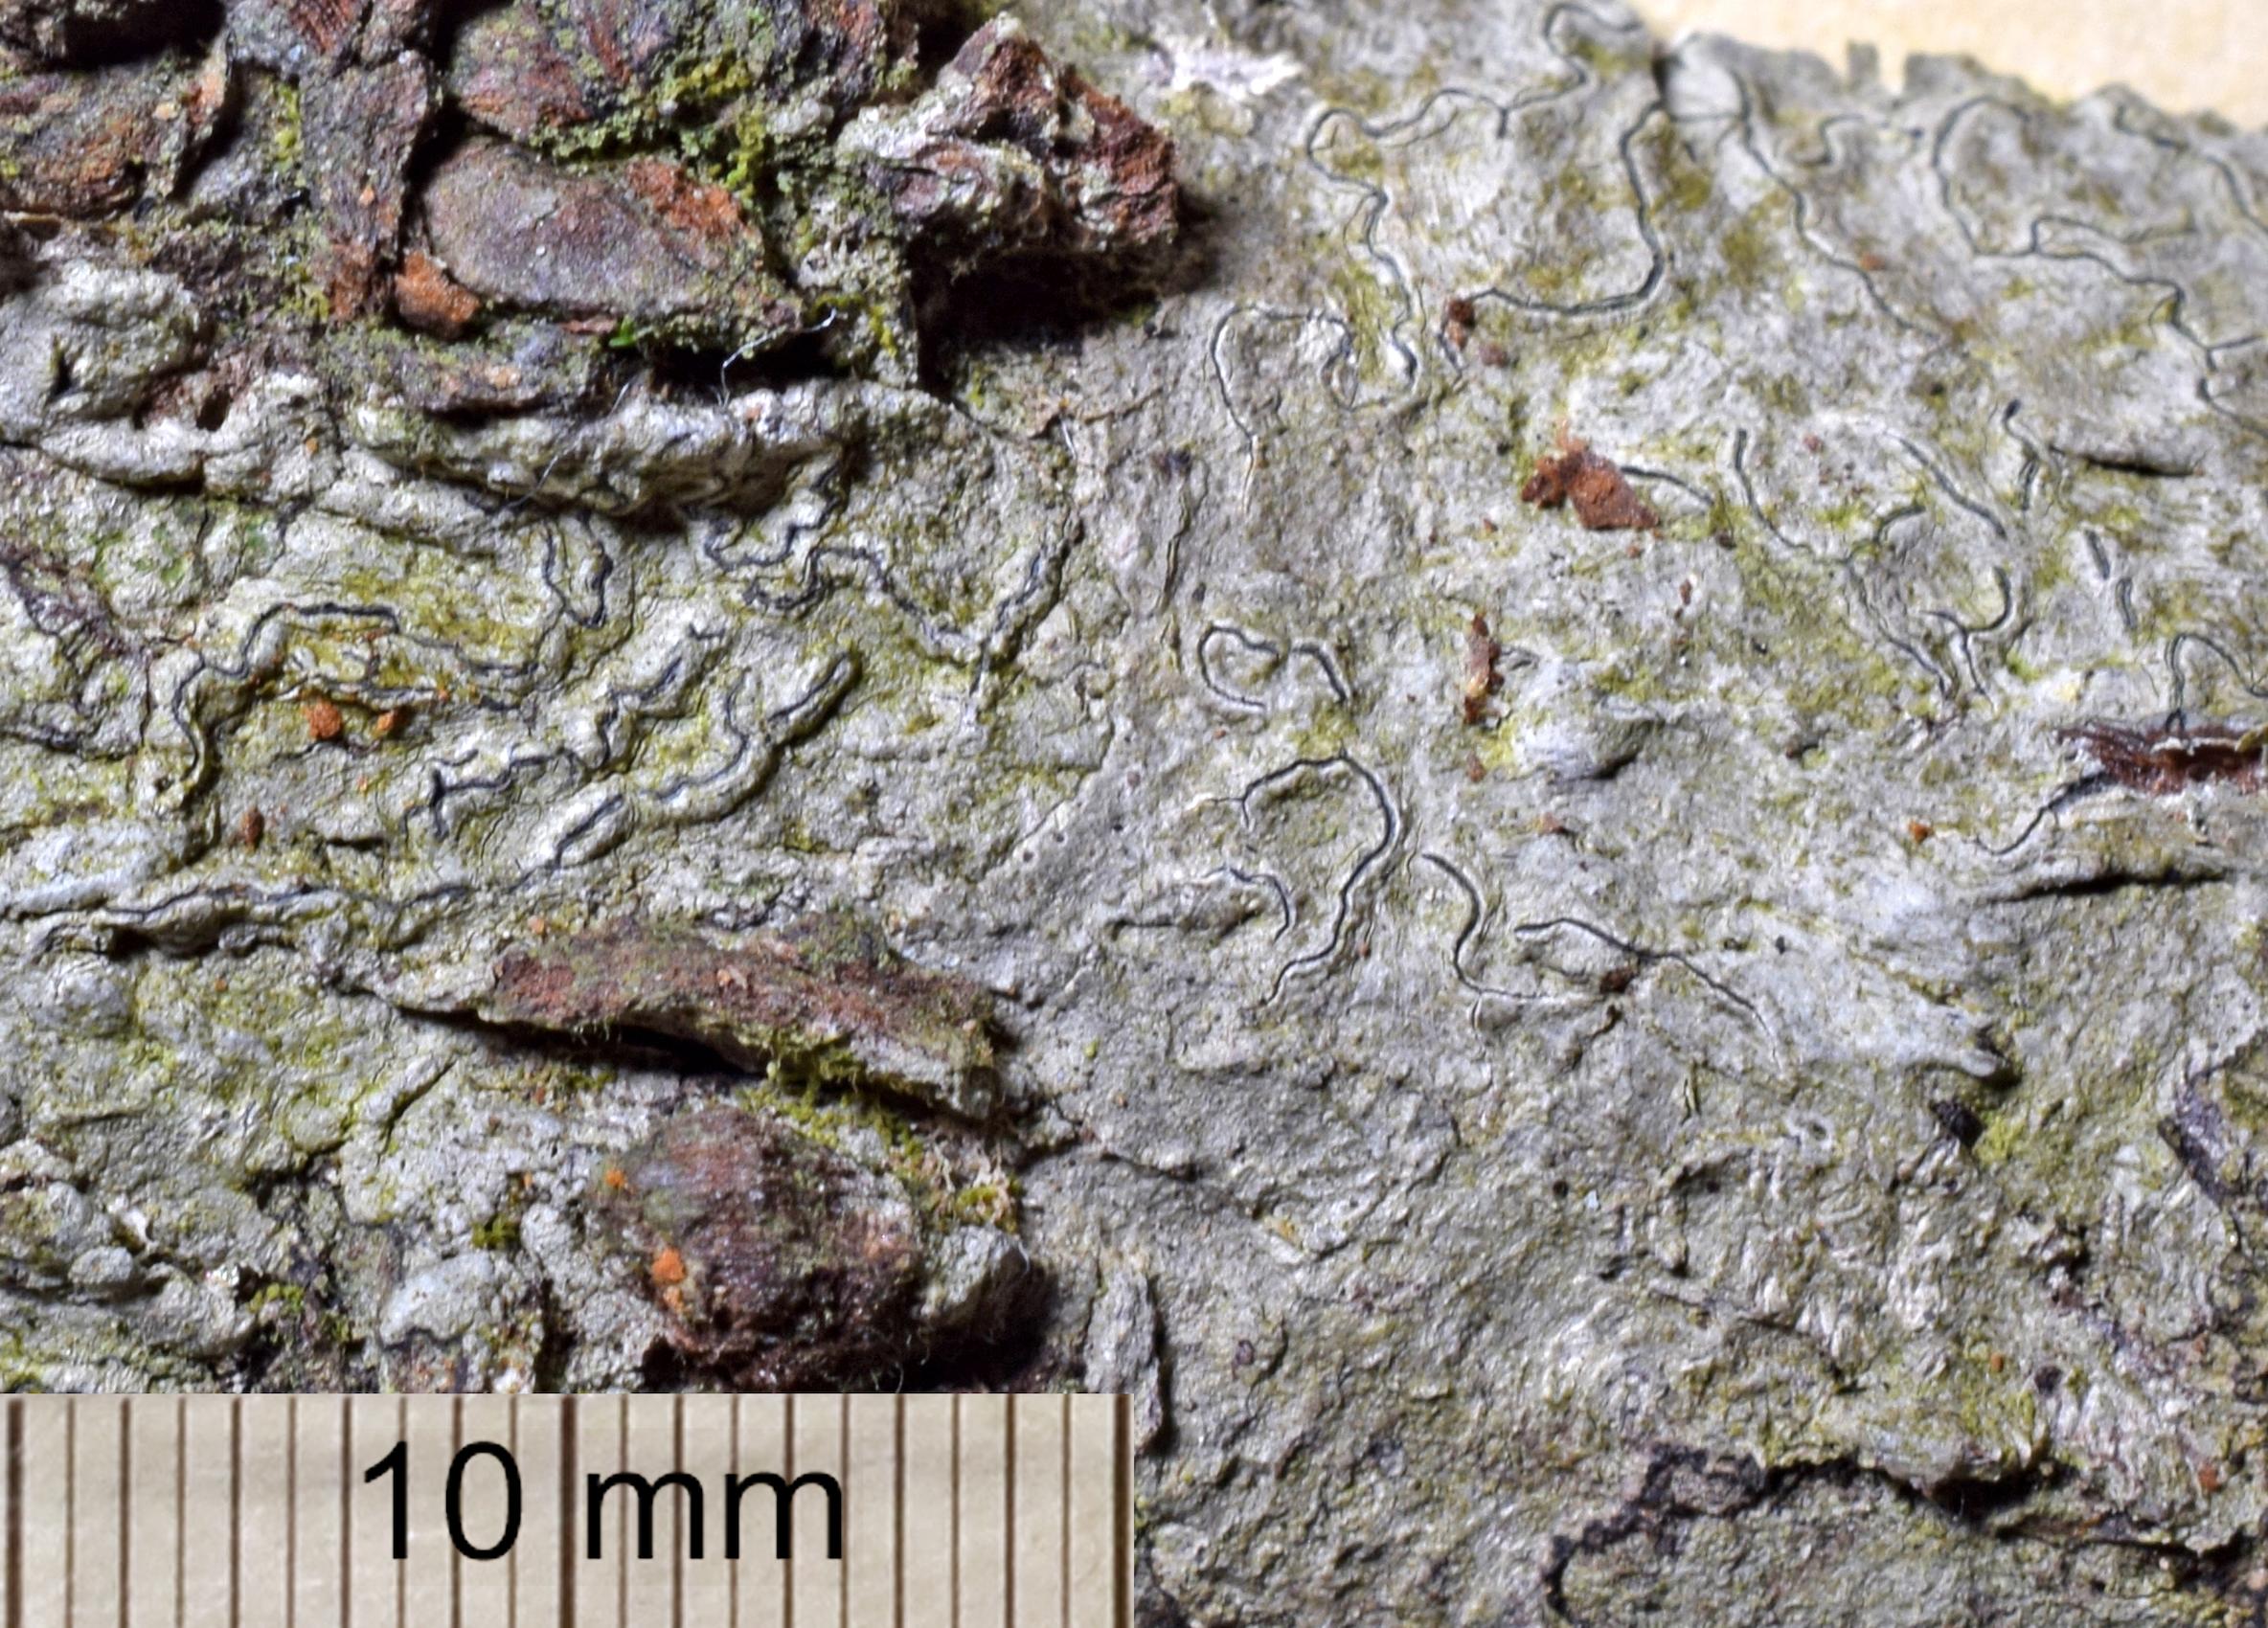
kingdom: Fungi
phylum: Ascomycota
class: Lecanoromycetes
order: Ostropales
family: Graphidaceae
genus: Graphis
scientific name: Graphis
